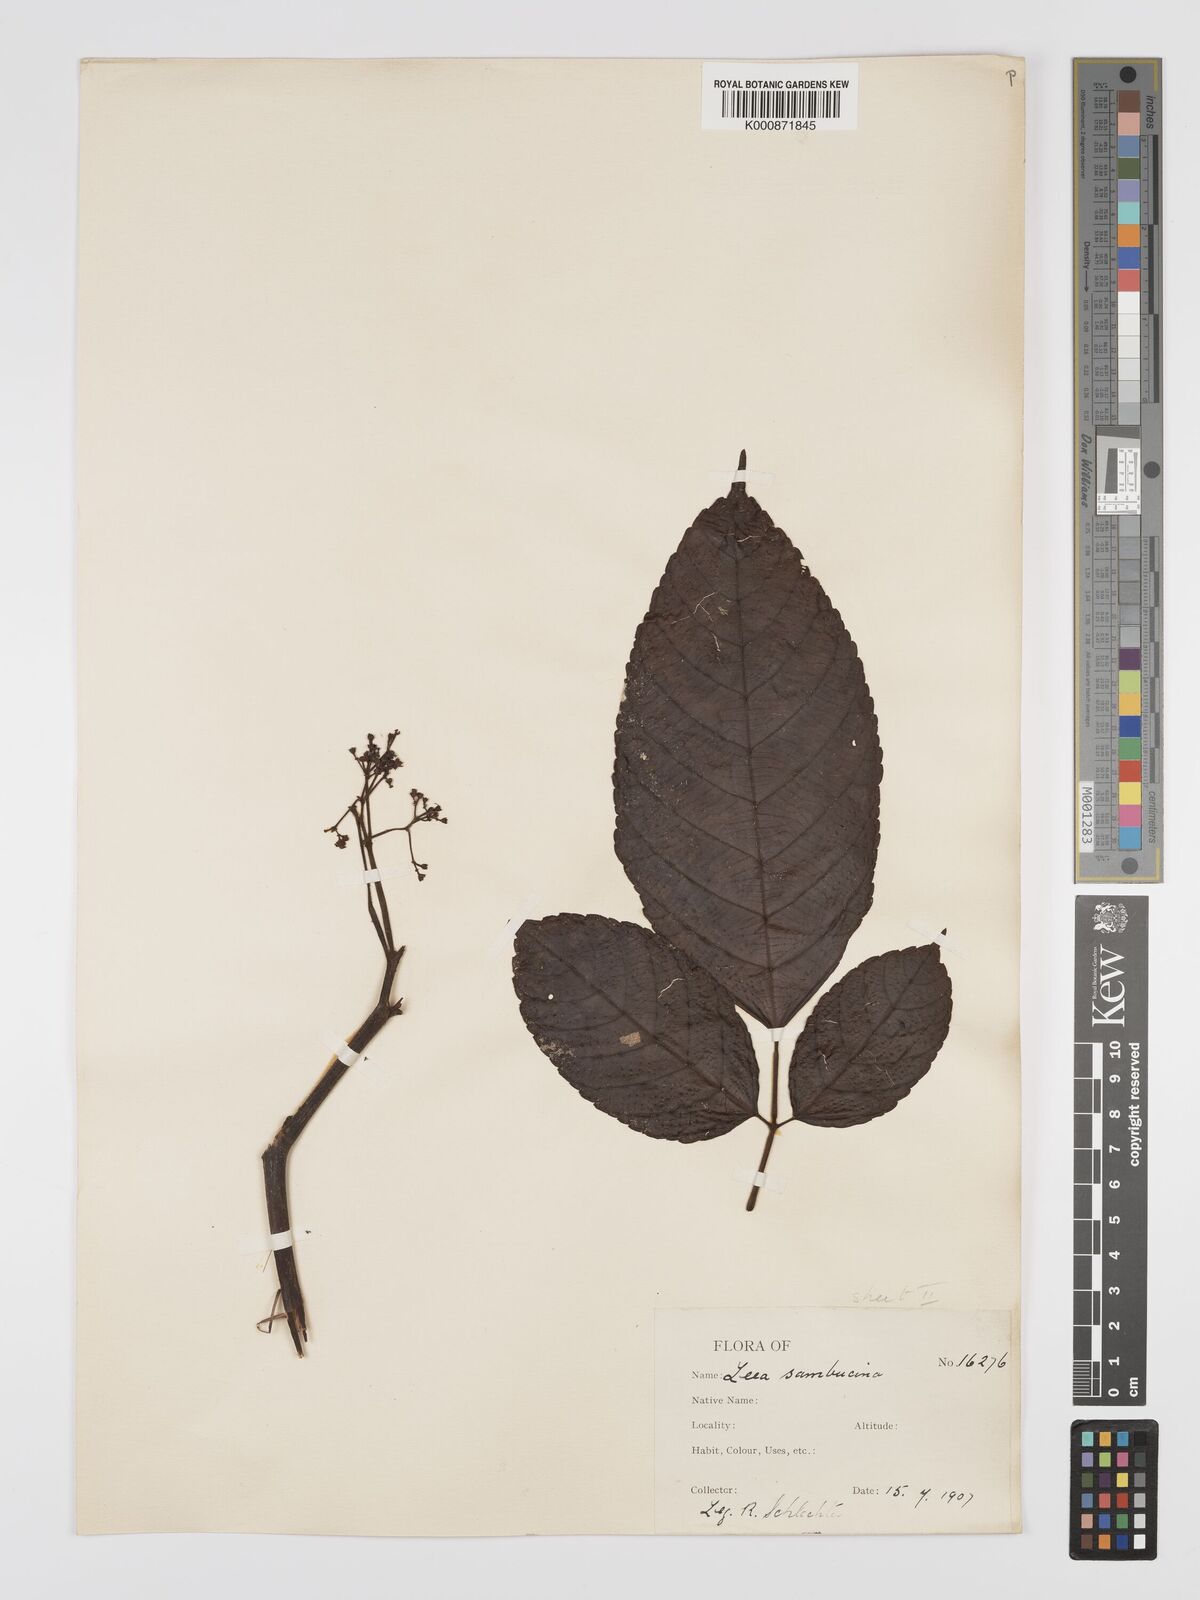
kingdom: Plantae
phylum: Tracheophyta
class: Magnoliopsida
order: Vitales
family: Vitaceae
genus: Leea
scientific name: Leea indica
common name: Bandicoot-berry
